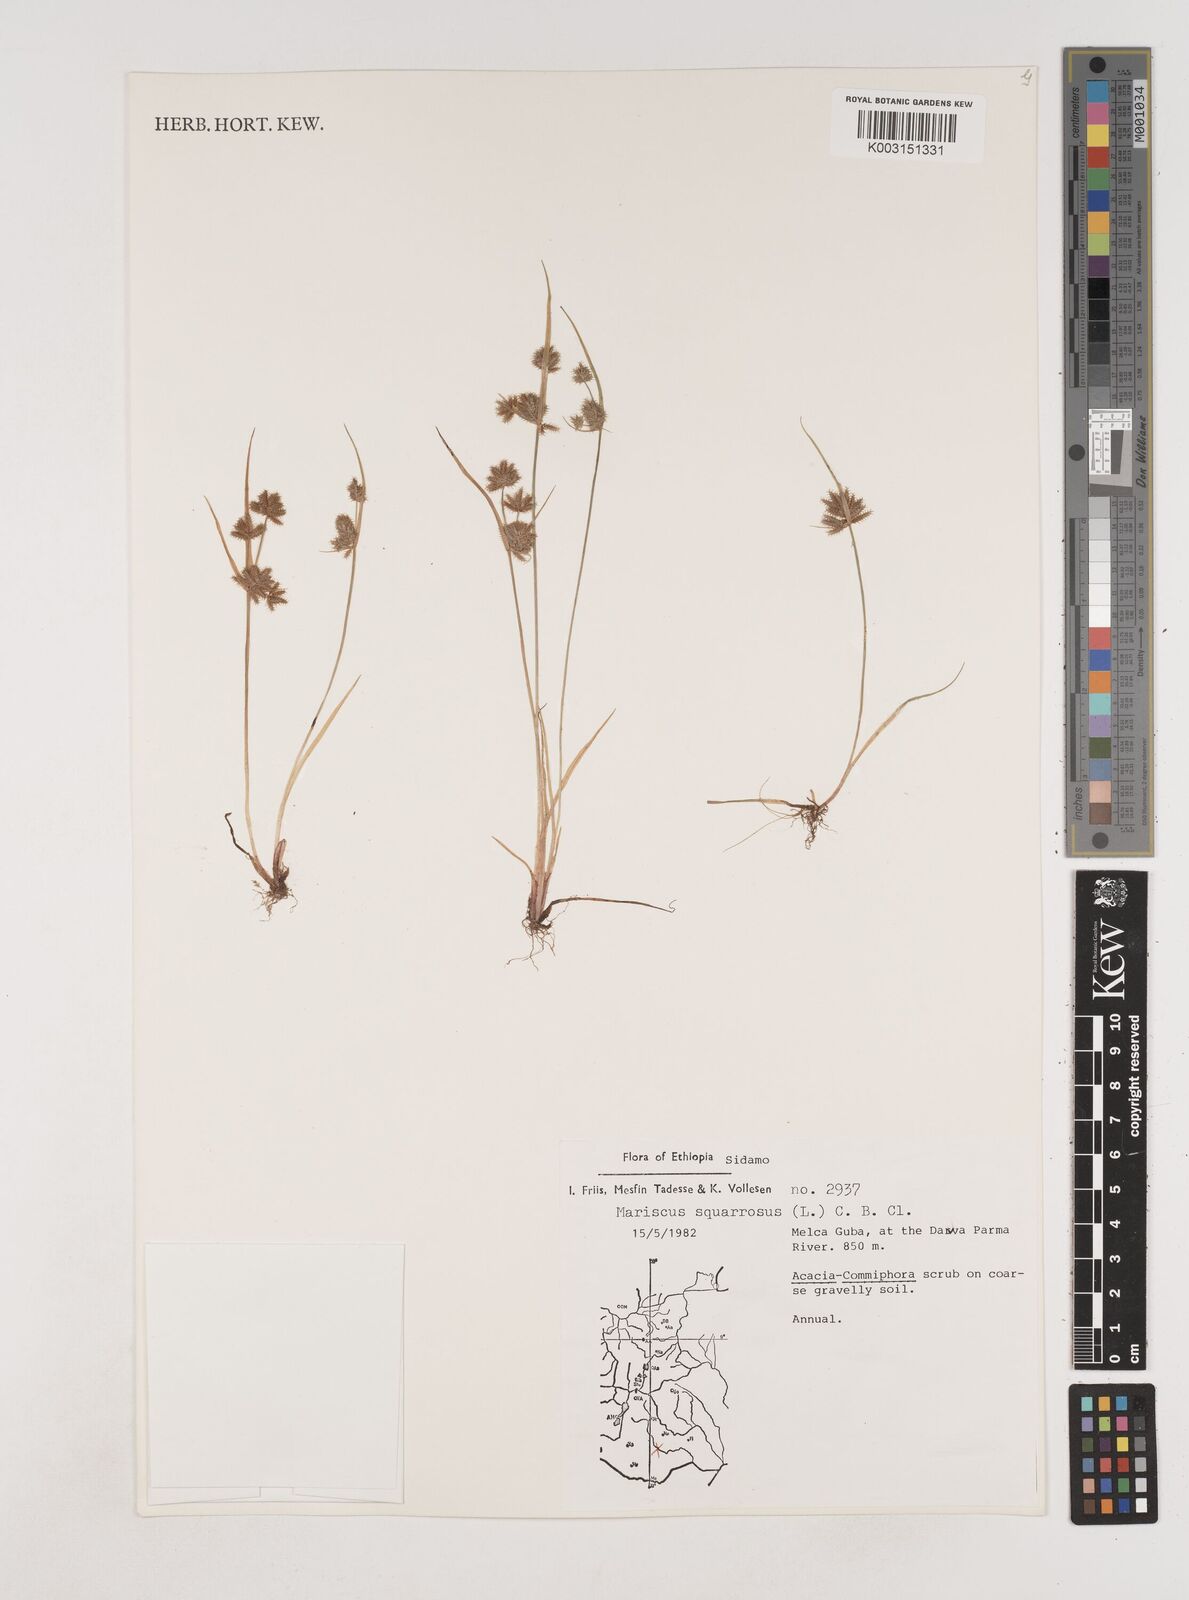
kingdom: Plantae
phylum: Tracheophyta
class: Liliopsida
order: Poales
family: Cyperaceae
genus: Cyperus
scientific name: Cyperus squarrosus
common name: Awned cyperus
